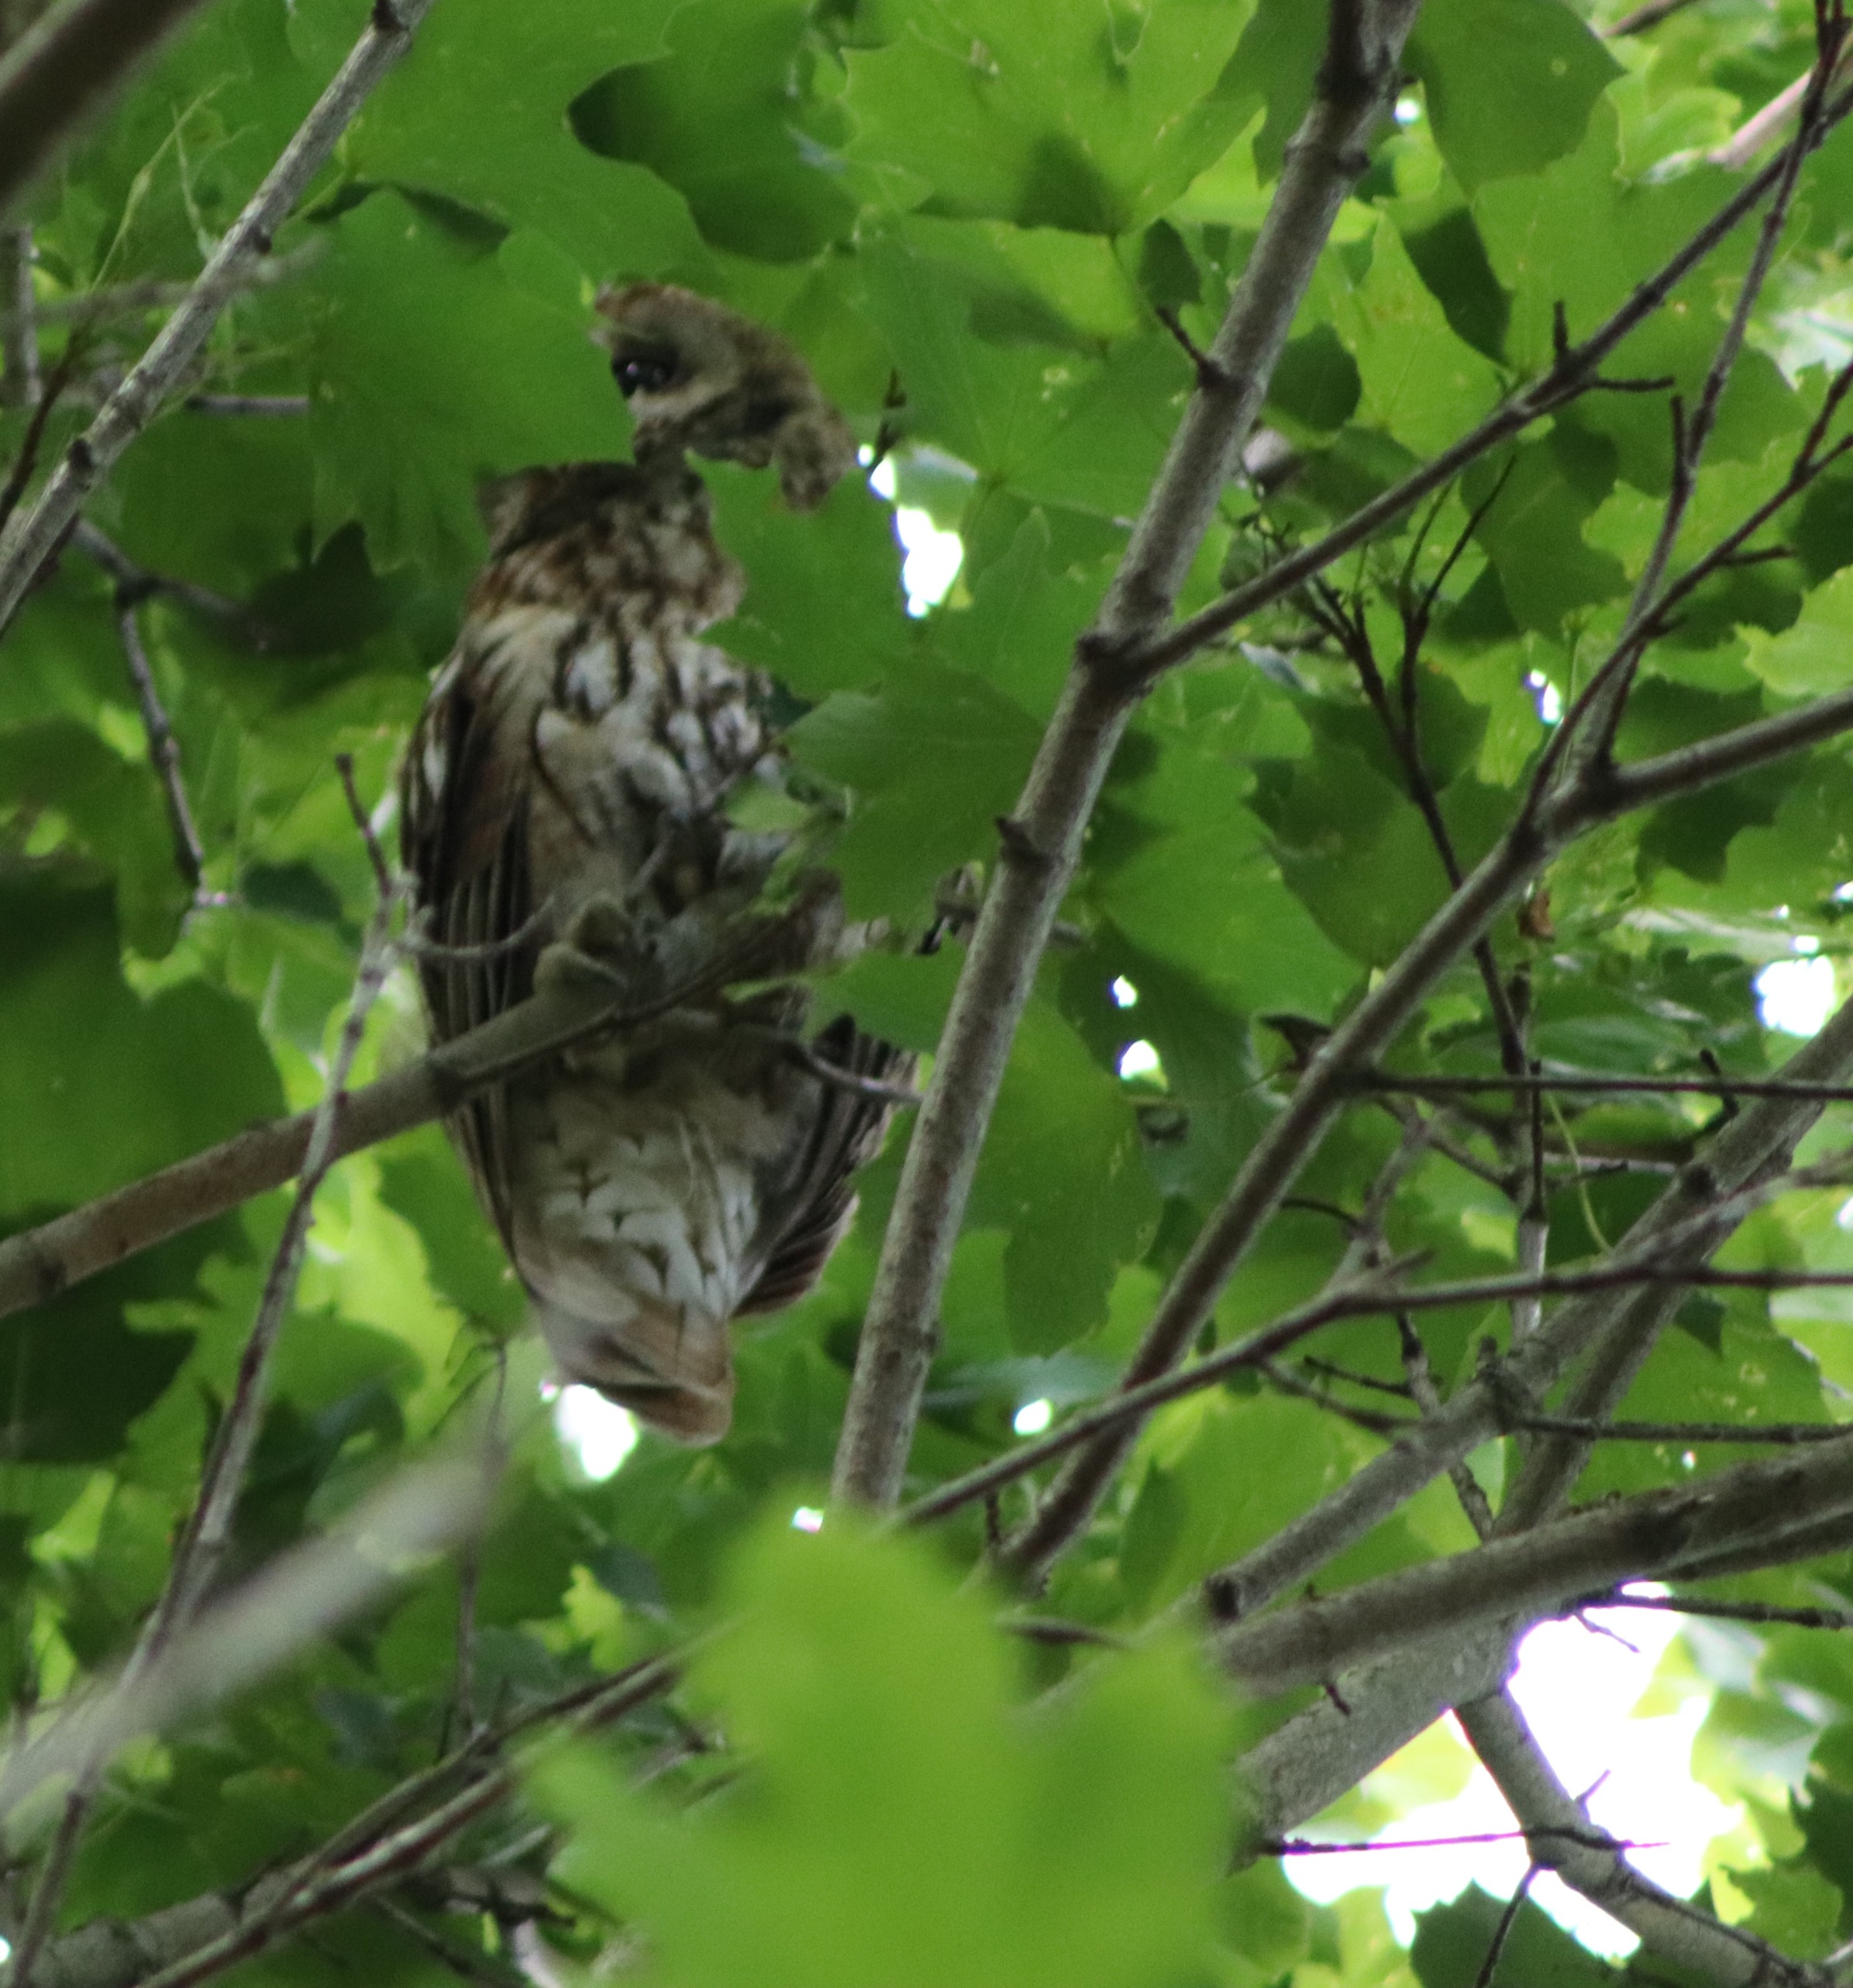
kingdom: Animalia
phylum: Chordata
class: Aves
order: Strigiformes
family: Strigidae
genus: Strix
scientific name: Strix aluco
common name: Natugle
